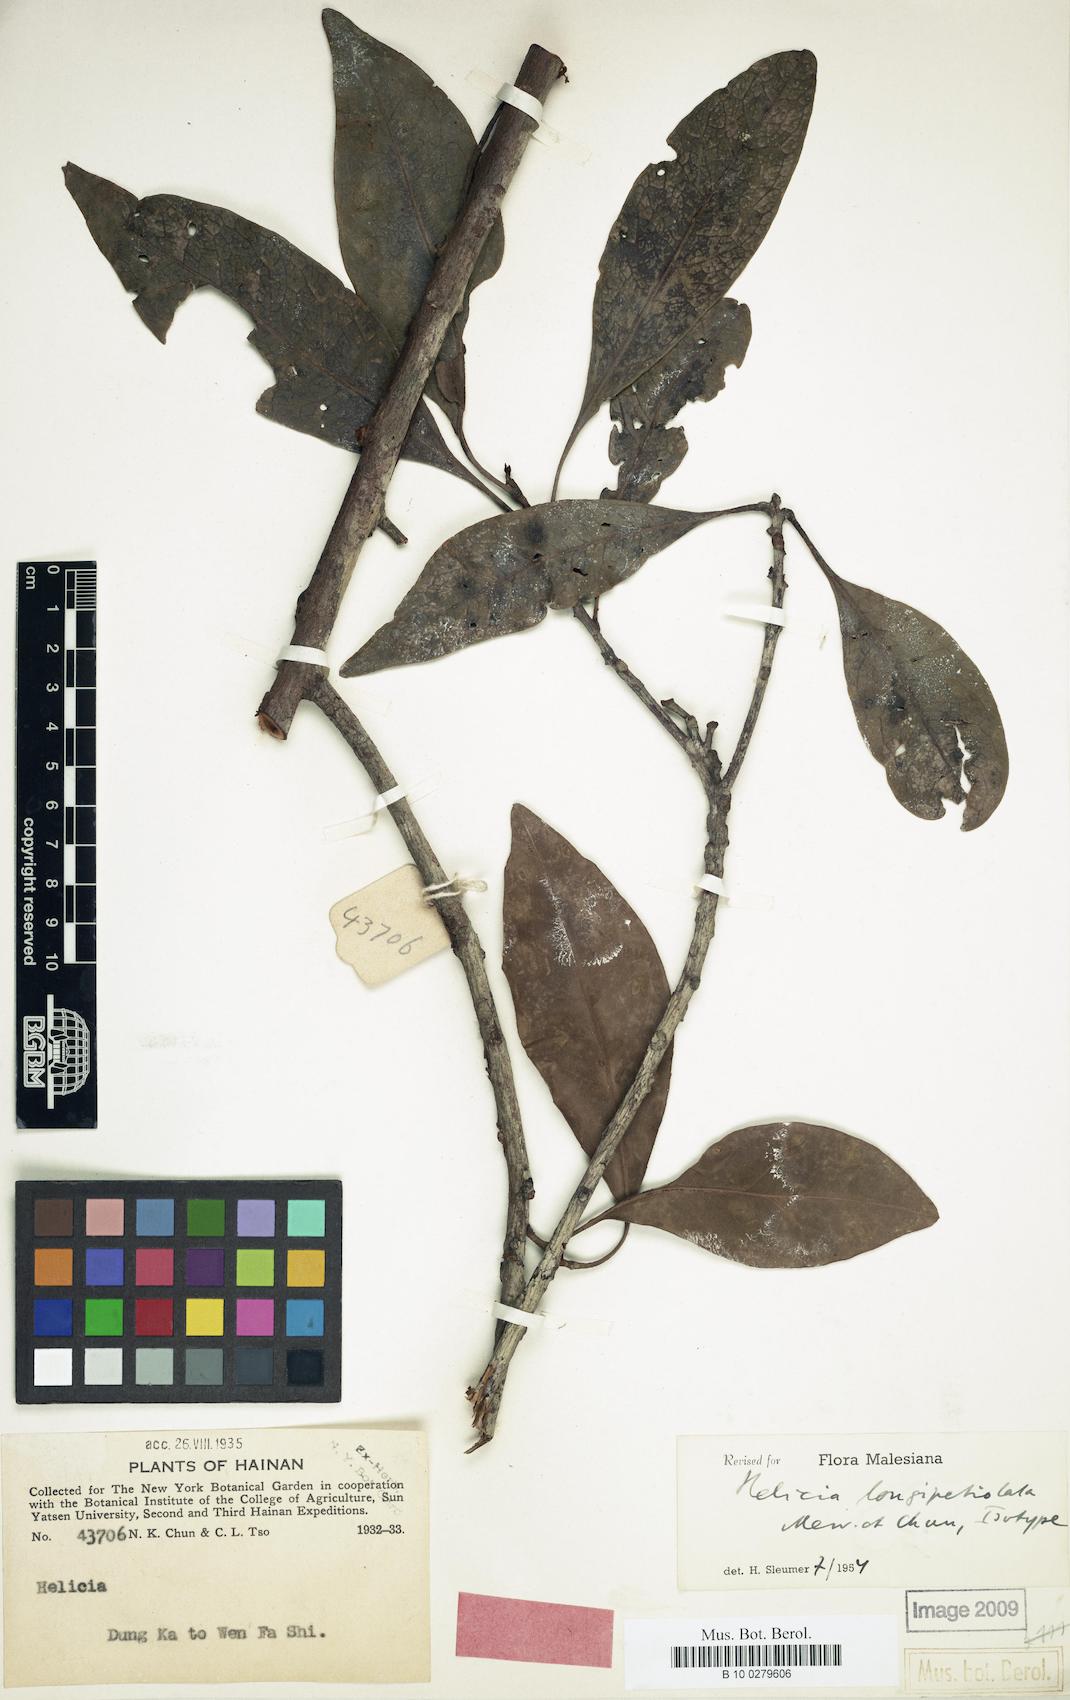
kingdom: Plantae
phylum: Tracheophyta
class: Magnoliopsida
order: Proteales
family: Proteaceae
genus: Helicia
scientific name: Helicia longipetiolata
